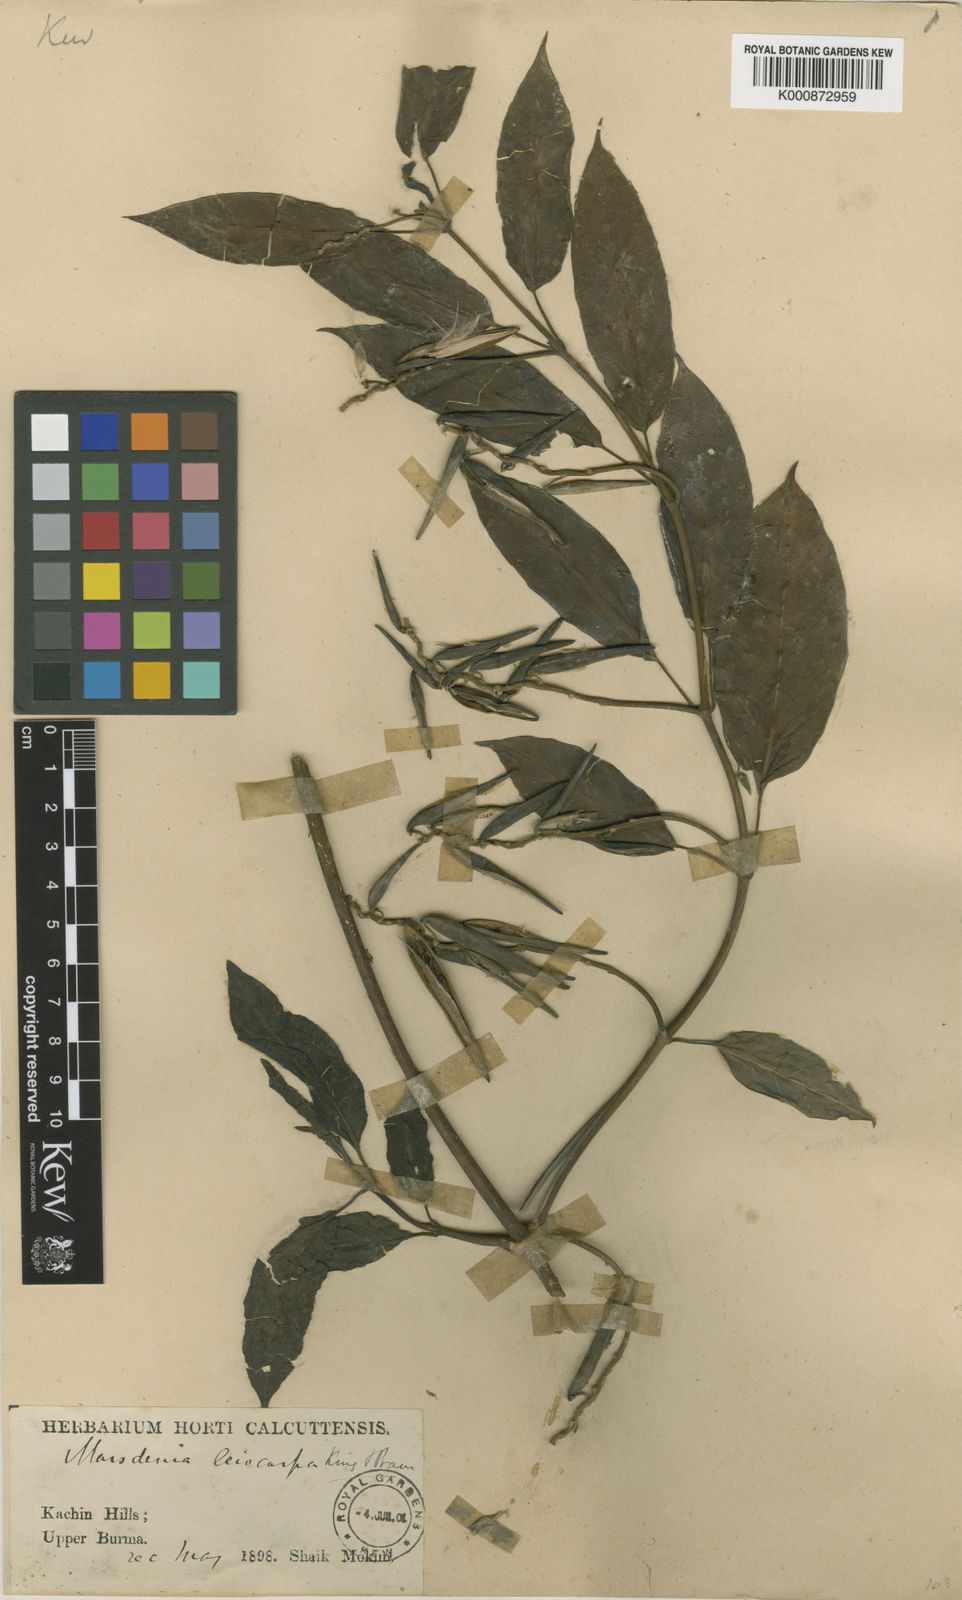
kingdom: Plantae
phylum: Tracheophyta
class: Magnoliopsida
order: Gentianales
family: Apocynaceae
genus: Marsdenia
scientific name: Marsdenia leiocarpa
